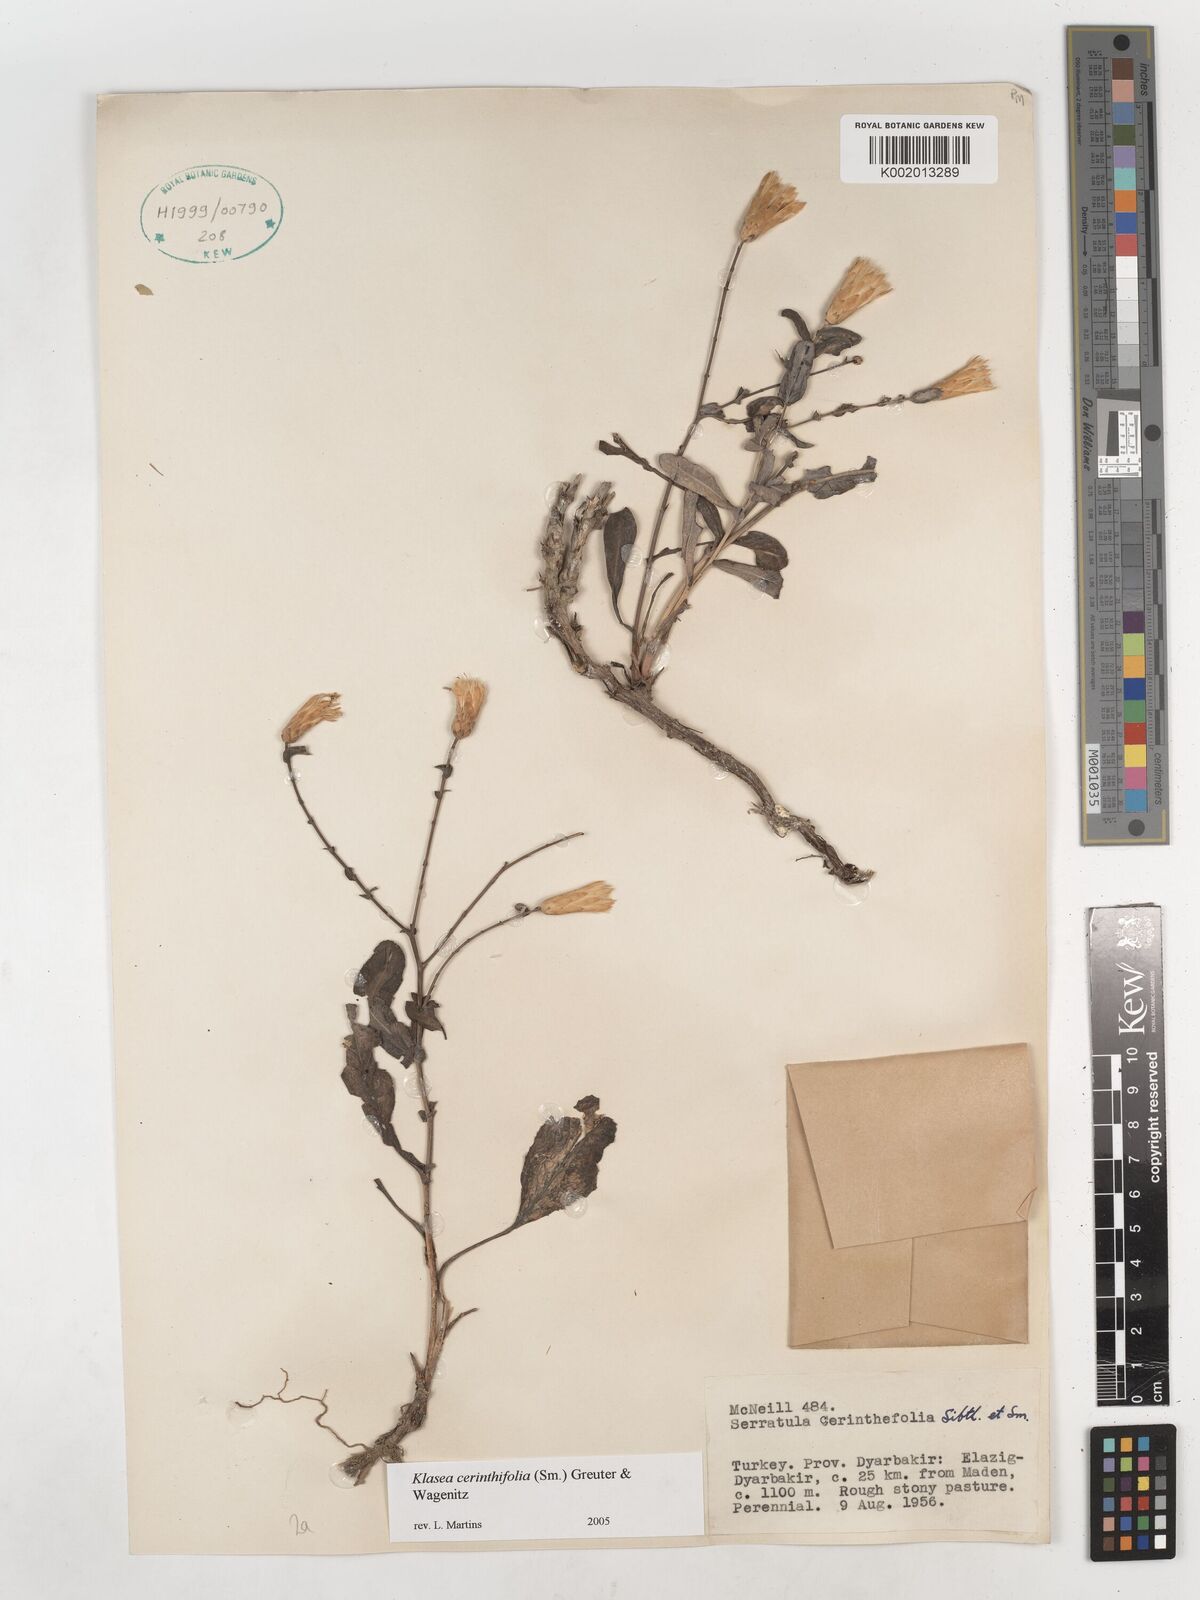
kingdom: Plantae
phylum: Tracheophyta
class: Magnoliopsida
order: Asterales
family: Asteraceae
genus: Klasea
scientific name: Klasea cerinthifolia
